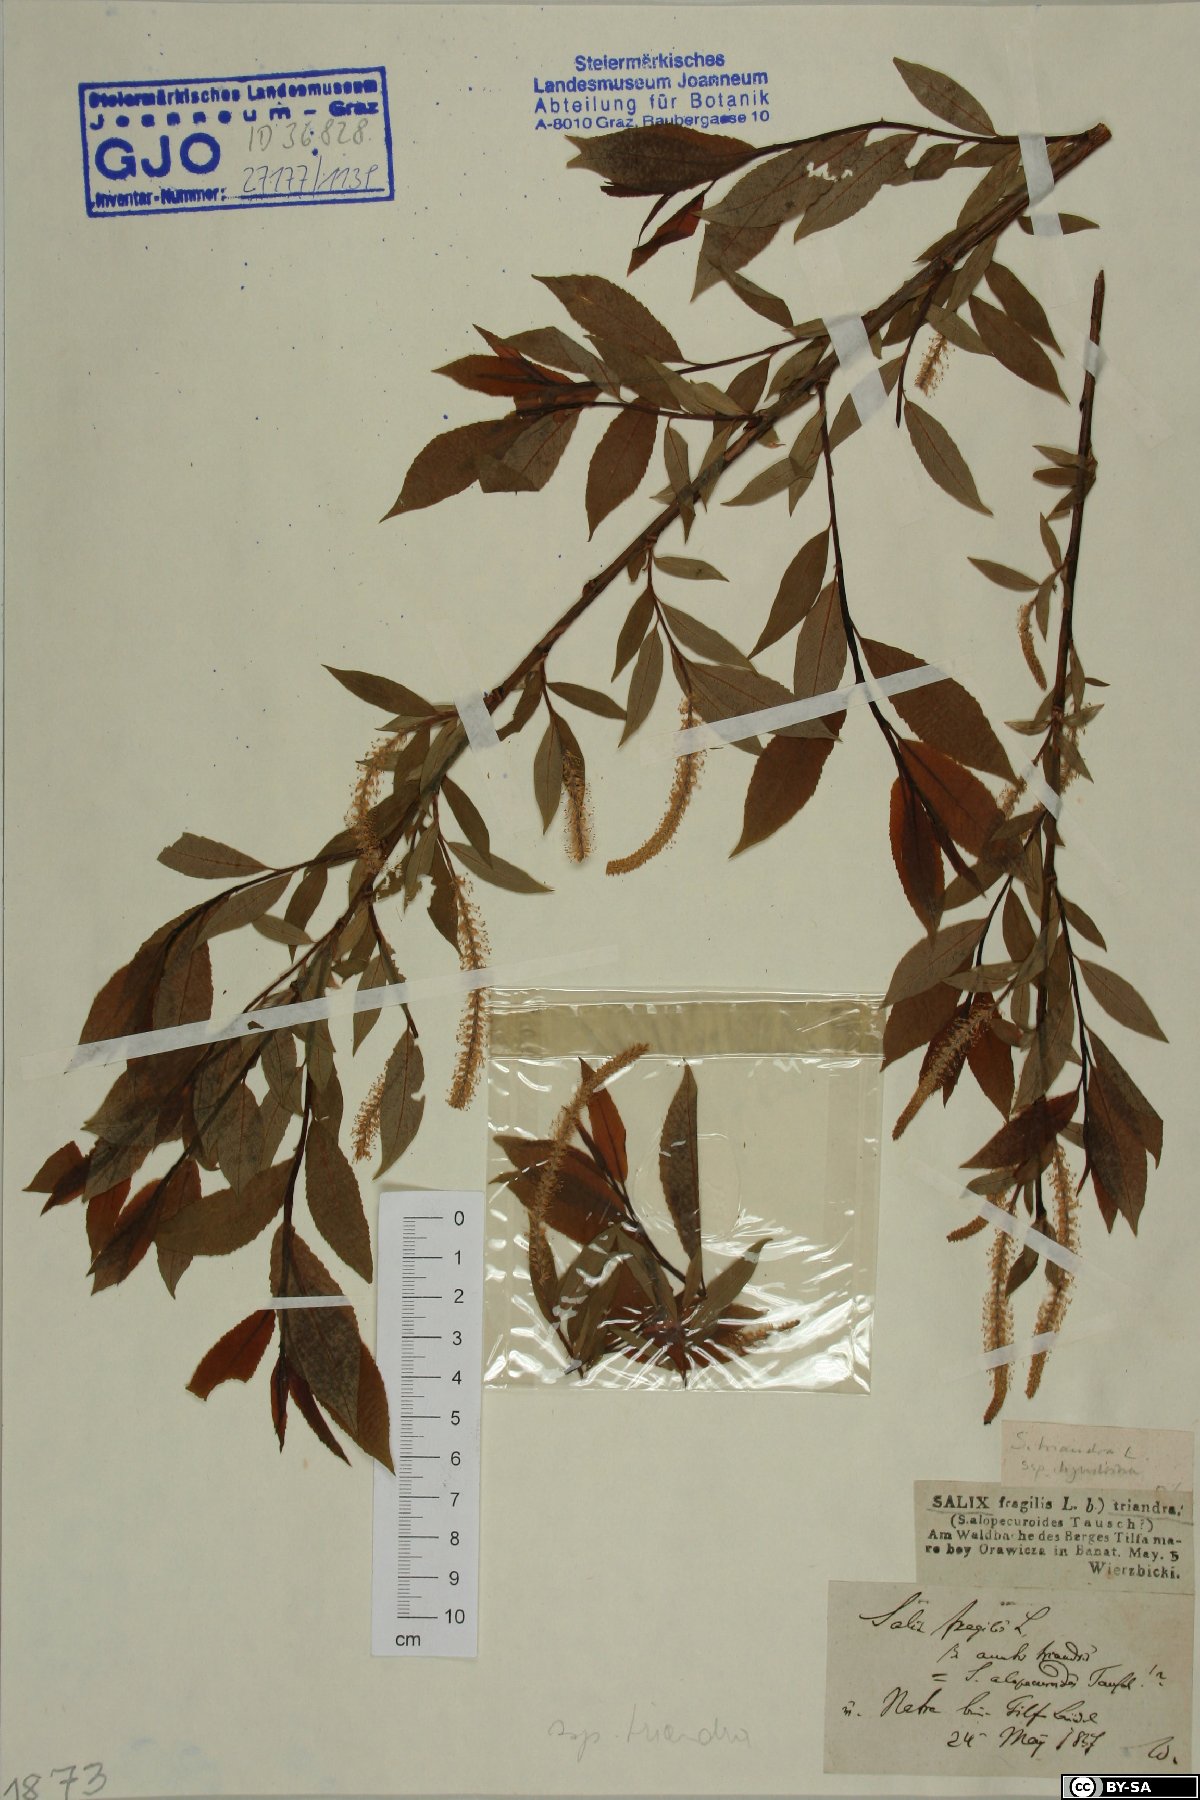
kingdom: Plantae
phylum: Tracheophyta
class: Magnoliopsida
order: Malpighiales
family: Salicaceae
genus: Salix
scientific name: Salix triandra
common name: Almond willow
